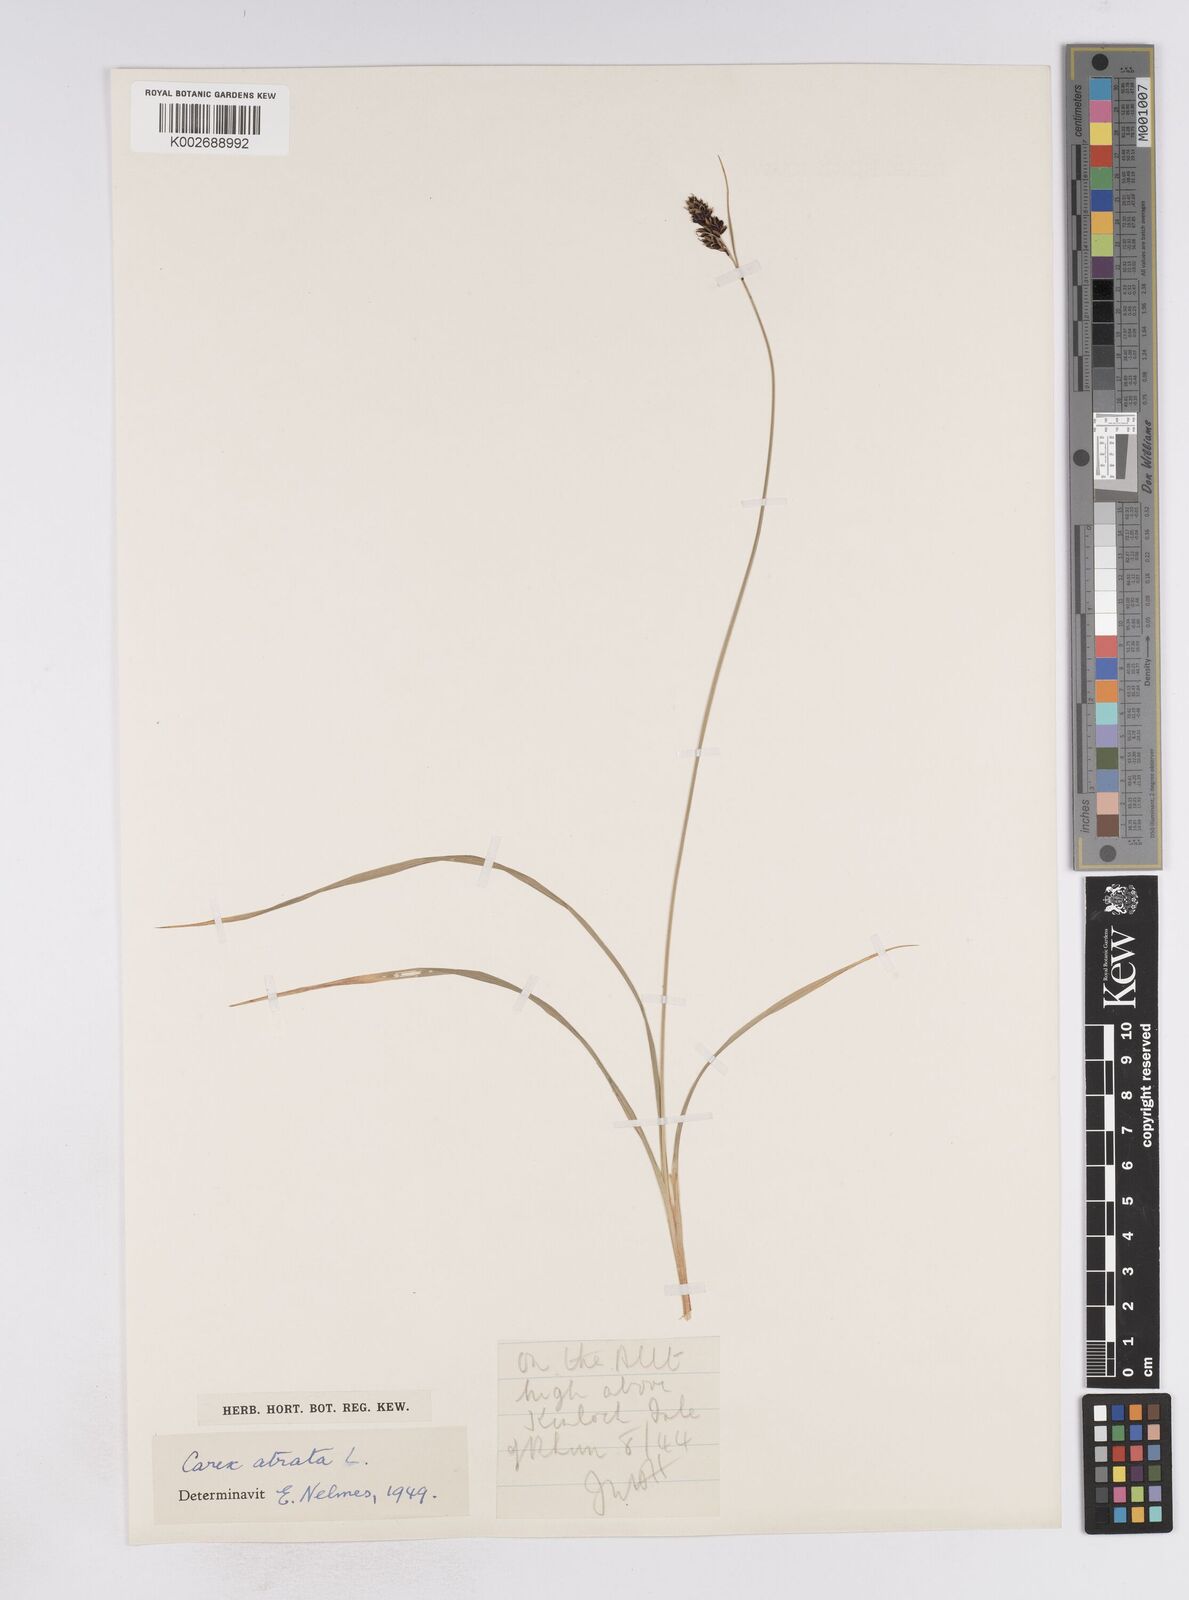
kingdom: Plantae
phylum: Tracheophyta
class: Liliopsida
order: Poales
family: Cyperaceae
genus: Carex
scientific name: Carex atrata
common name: Black alpine sedge
